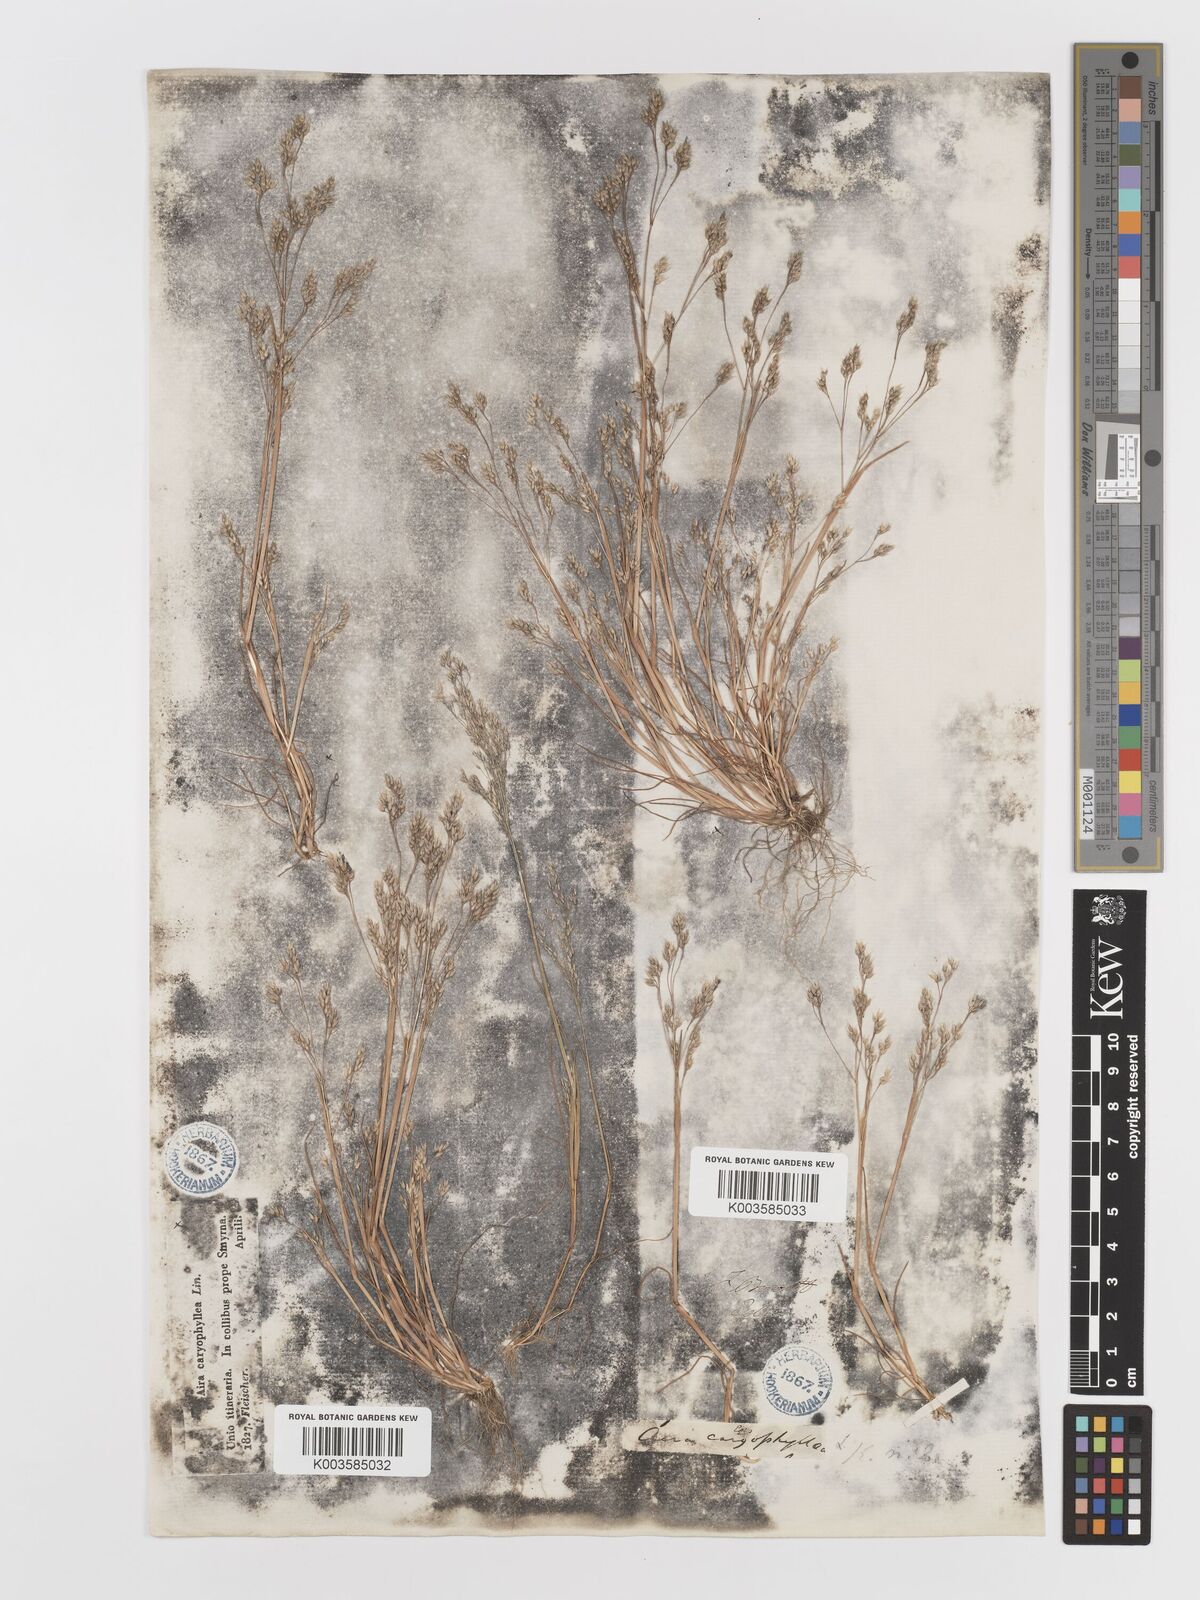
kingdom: Plantae
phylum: Tracheophyta
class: Liliopsida
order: Poales
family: Poaceae
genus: Aira
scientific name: Aira caryophyllea
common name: Silver hairgrass
